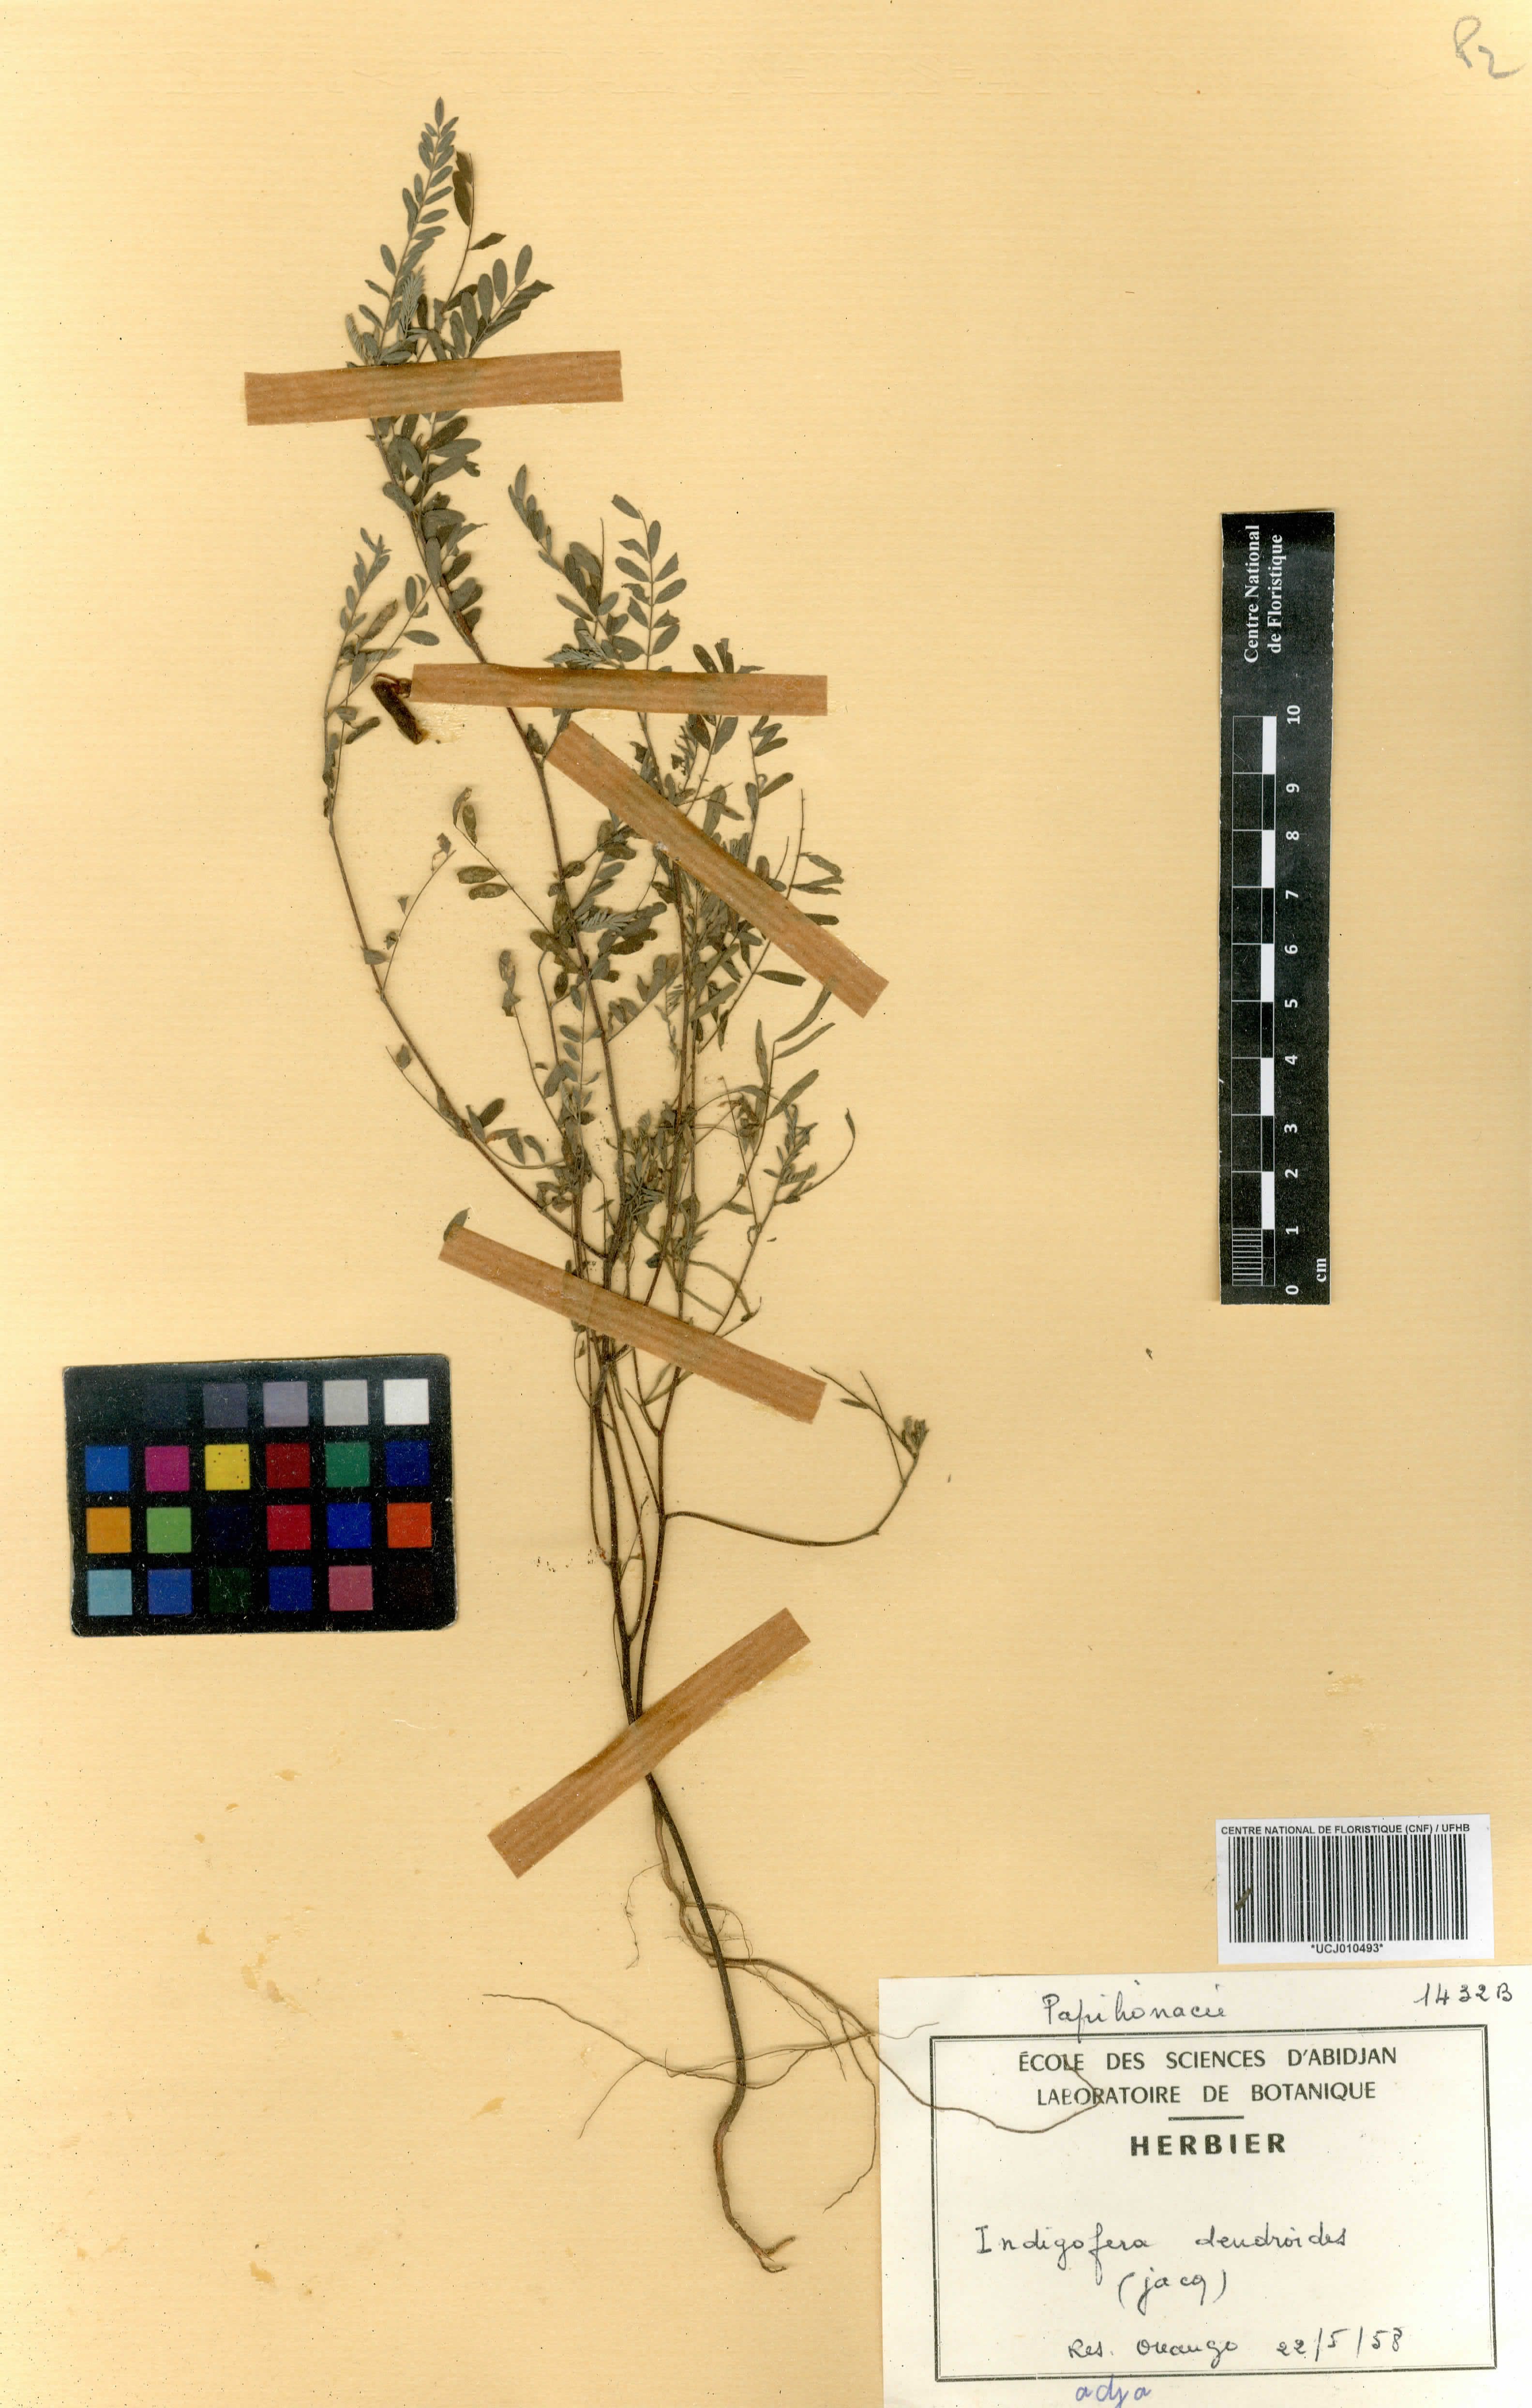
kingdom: Plantae
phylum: Tracheophyta
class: Magnoliopsida
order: Fabales
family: Fabaceae
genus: Indigofera
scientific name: Indigofera dendroides
